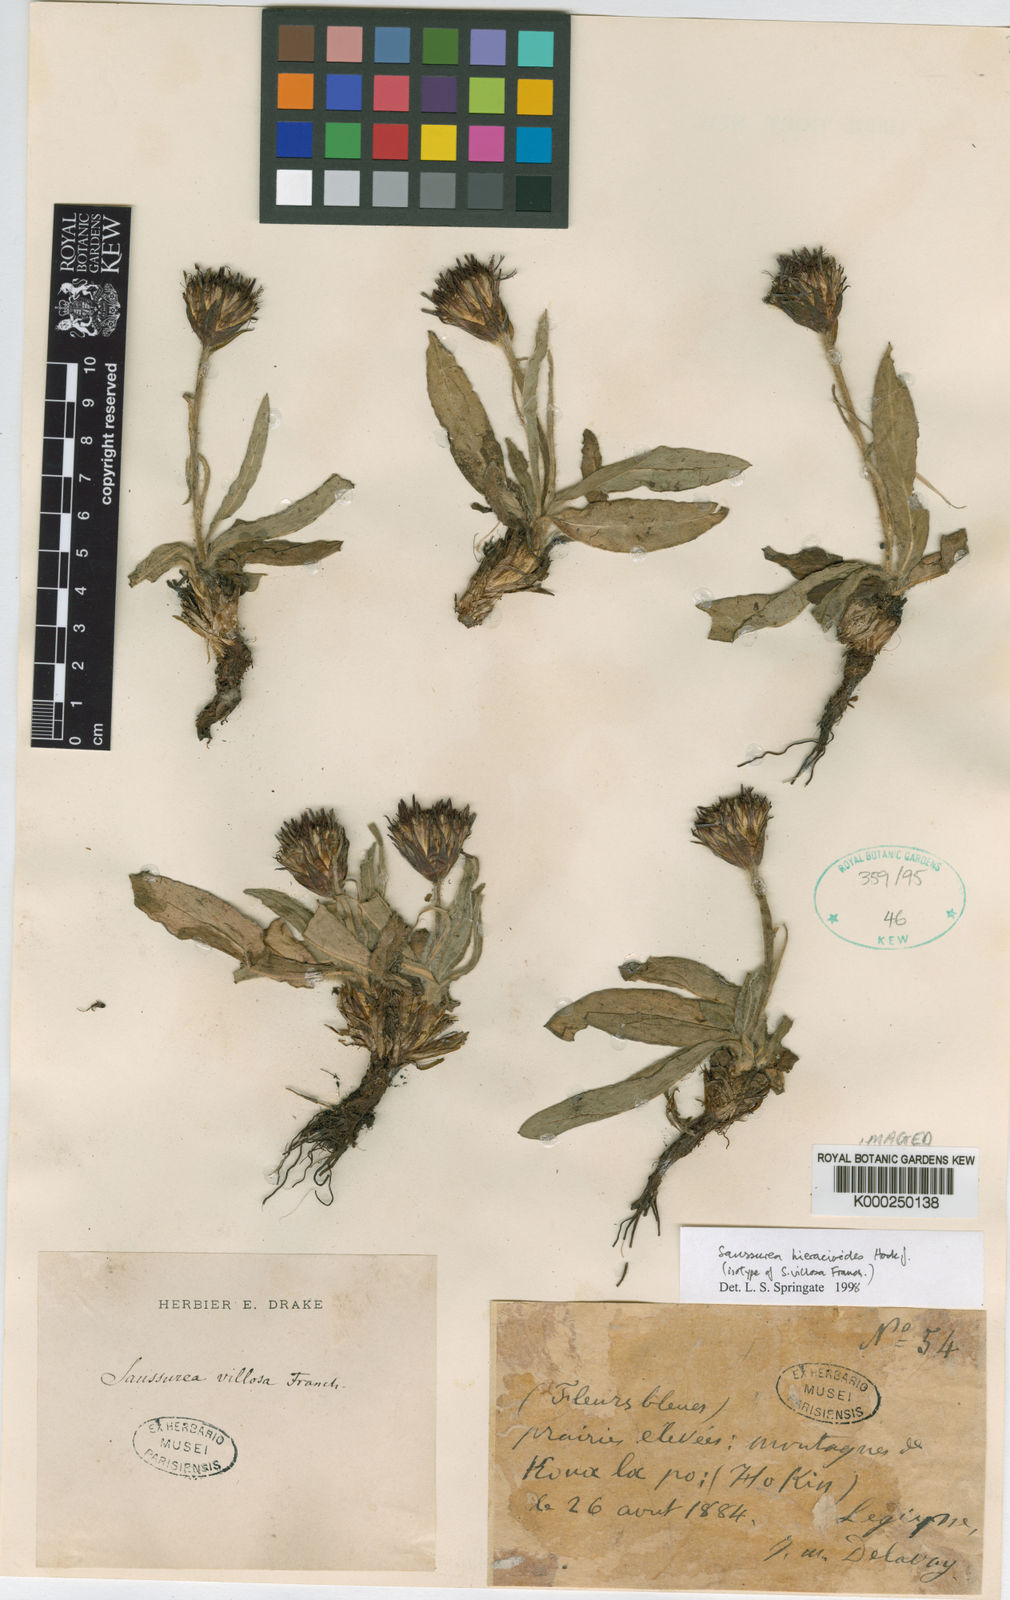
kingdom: Plantae
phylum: Tracheophyta
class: Magnoliopsida
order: Asterales
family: Asteraceae
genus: Saussurea
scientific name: Saussurea hieracioides
